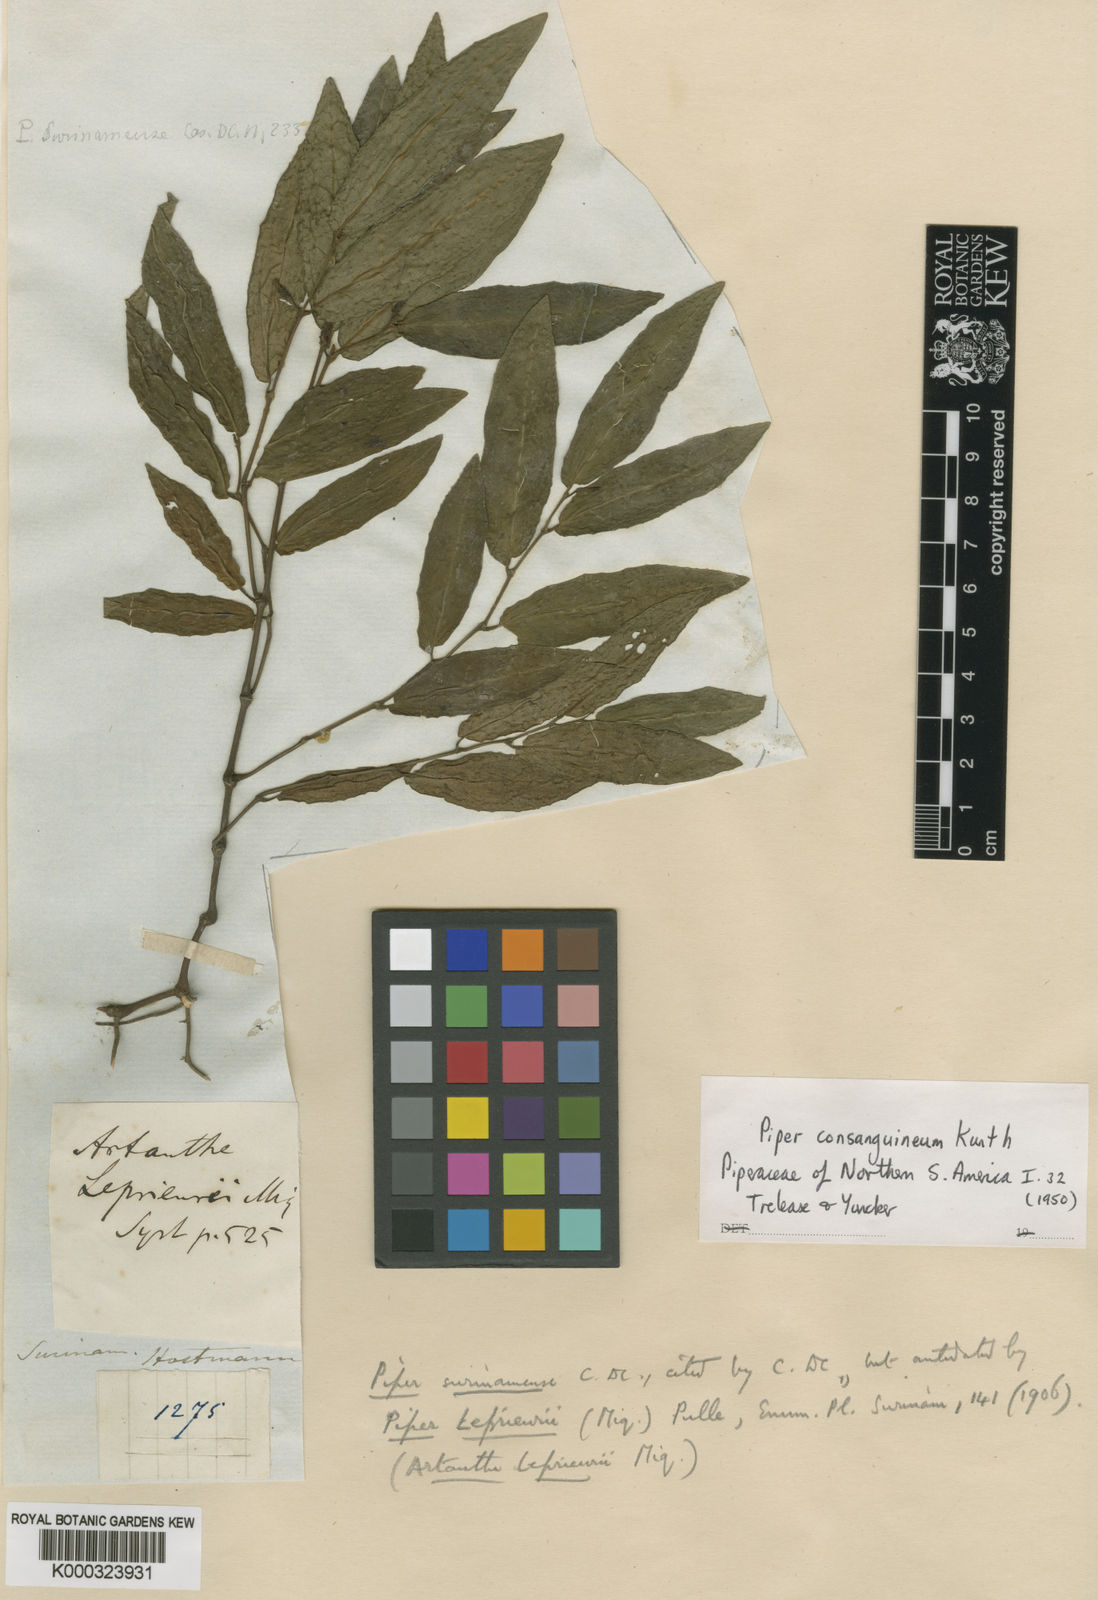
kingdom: Plantae
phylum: Tracheophyta
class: Magnoliopsida
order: Piperales
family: Piperaceae
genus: Piper
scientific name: Piper consanguineum
